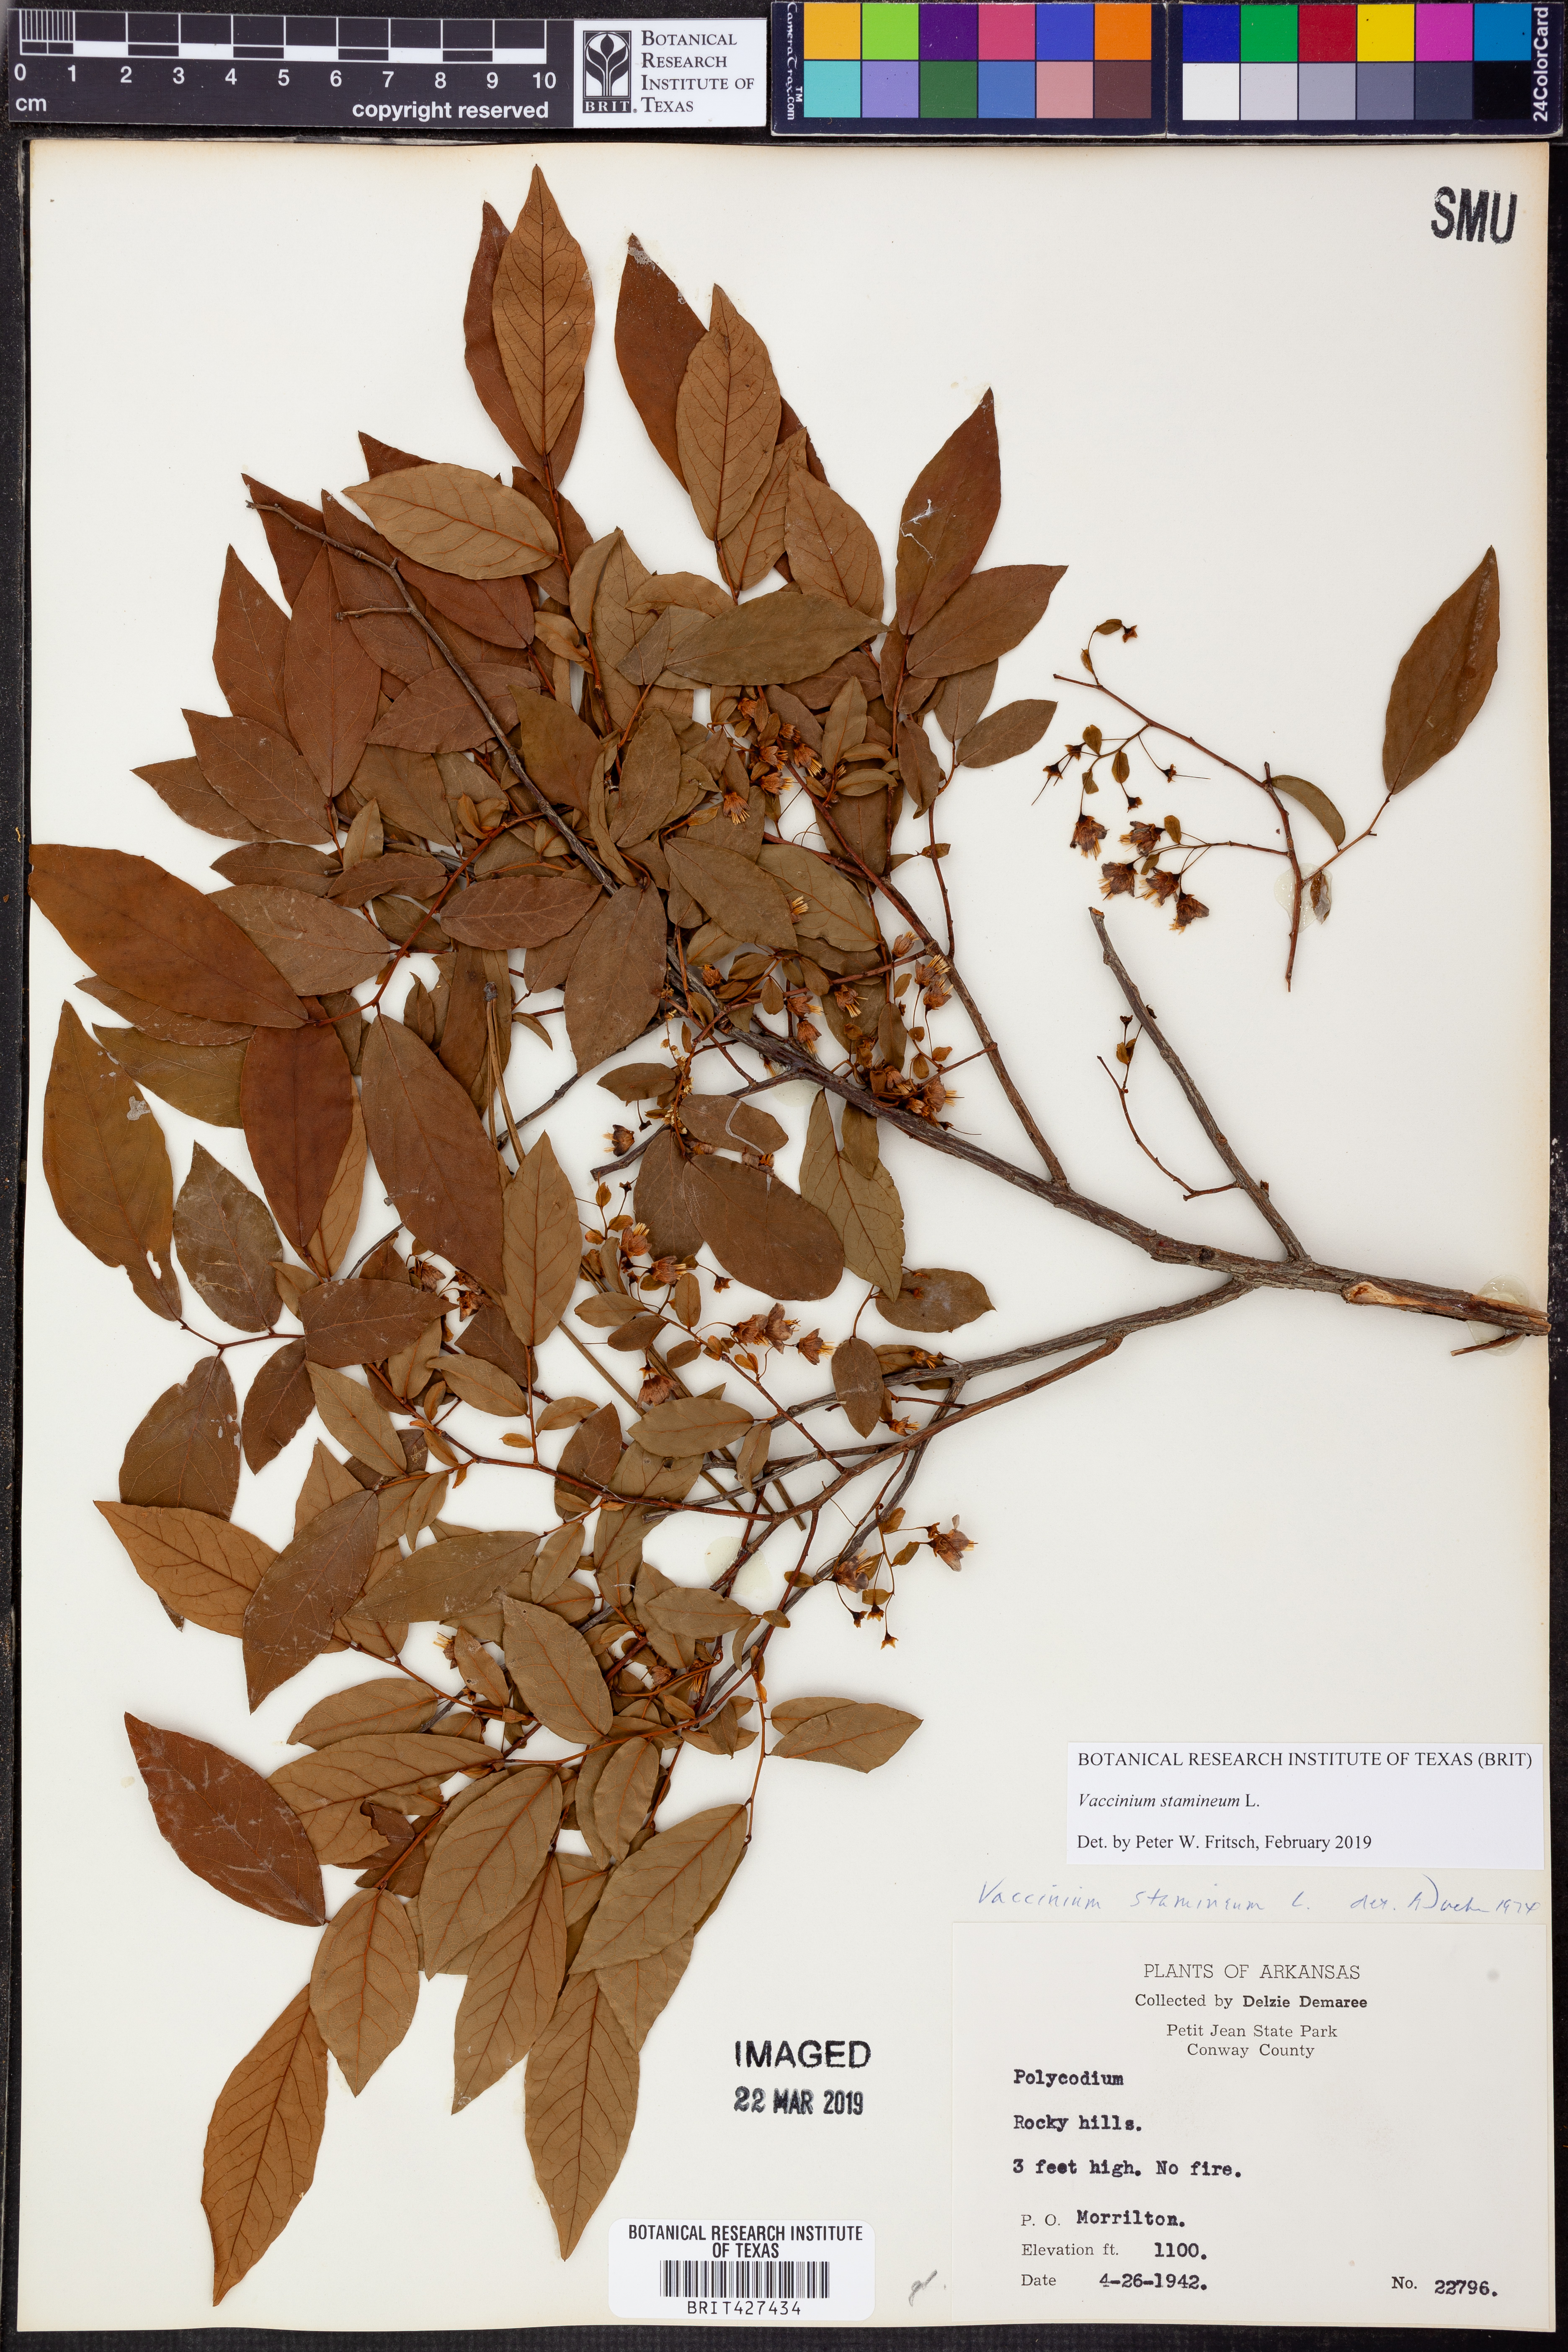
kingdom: Plantae
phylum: Tracheophyta
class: Magnoliopsida
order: Ericales
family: Ericaceae
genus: Vaccinium
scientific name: Vaccinium stamineum
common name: Deerberry
